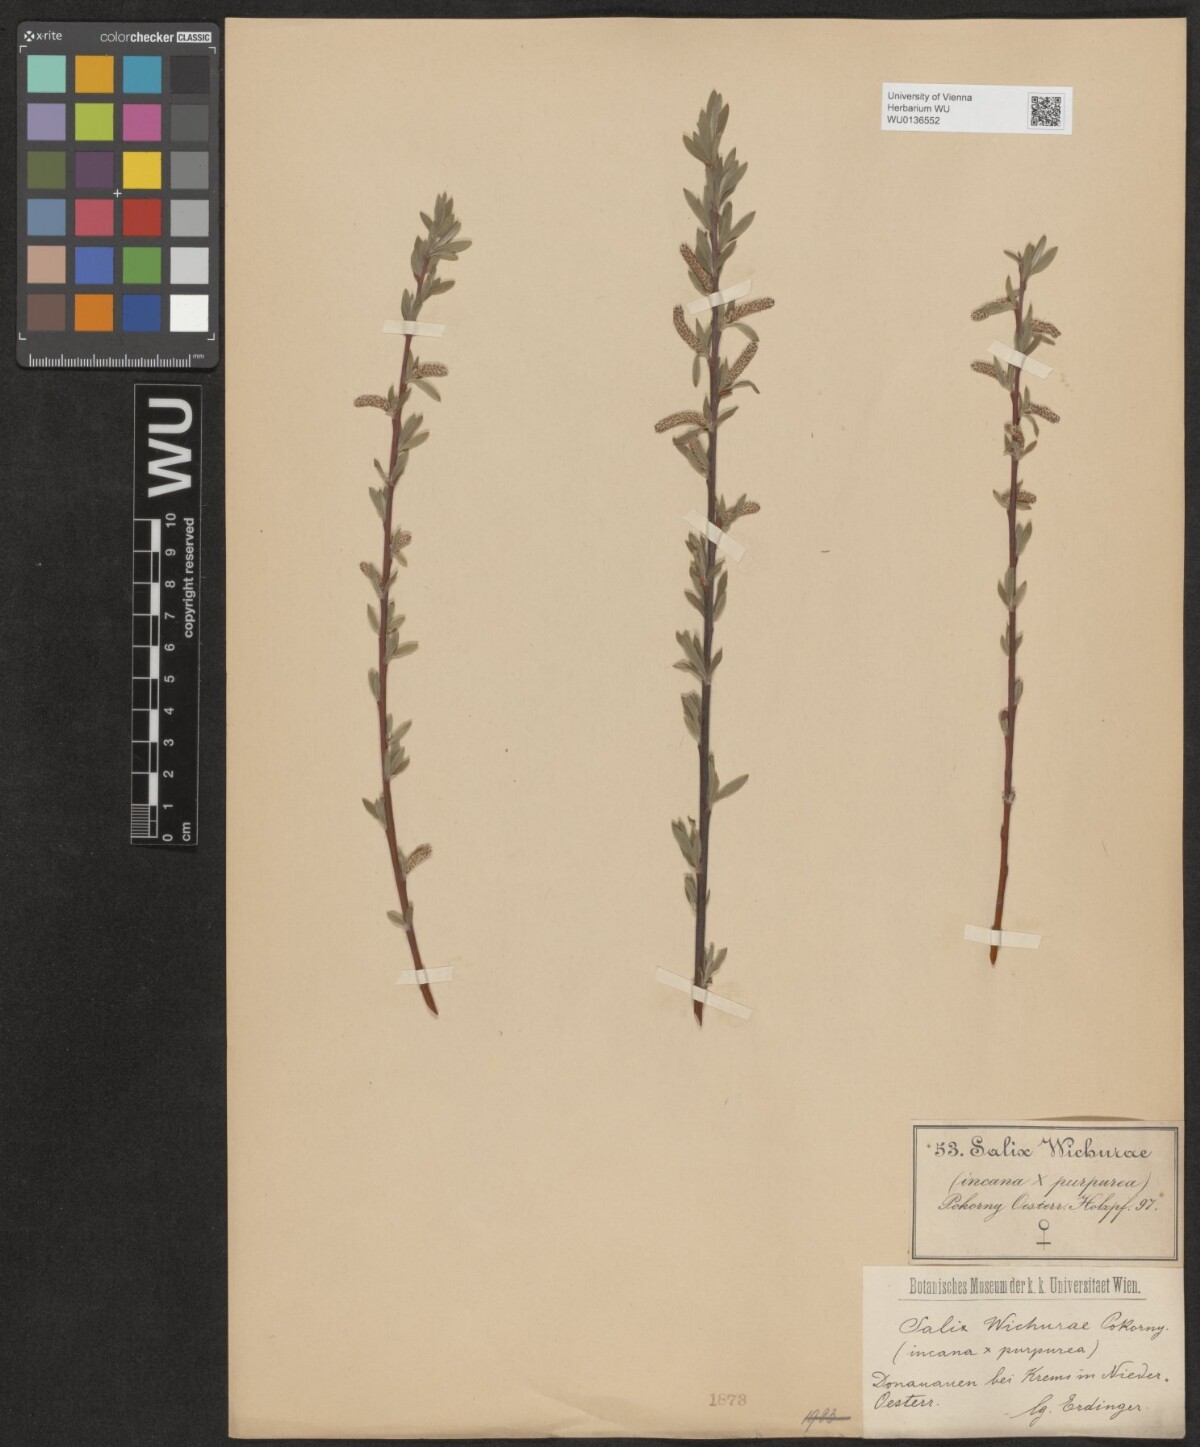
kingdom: Plantae
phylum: Tracheophyta
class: Magnoliopsida
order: Malpighiales
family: Salicaceae
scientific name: Salicaceae
